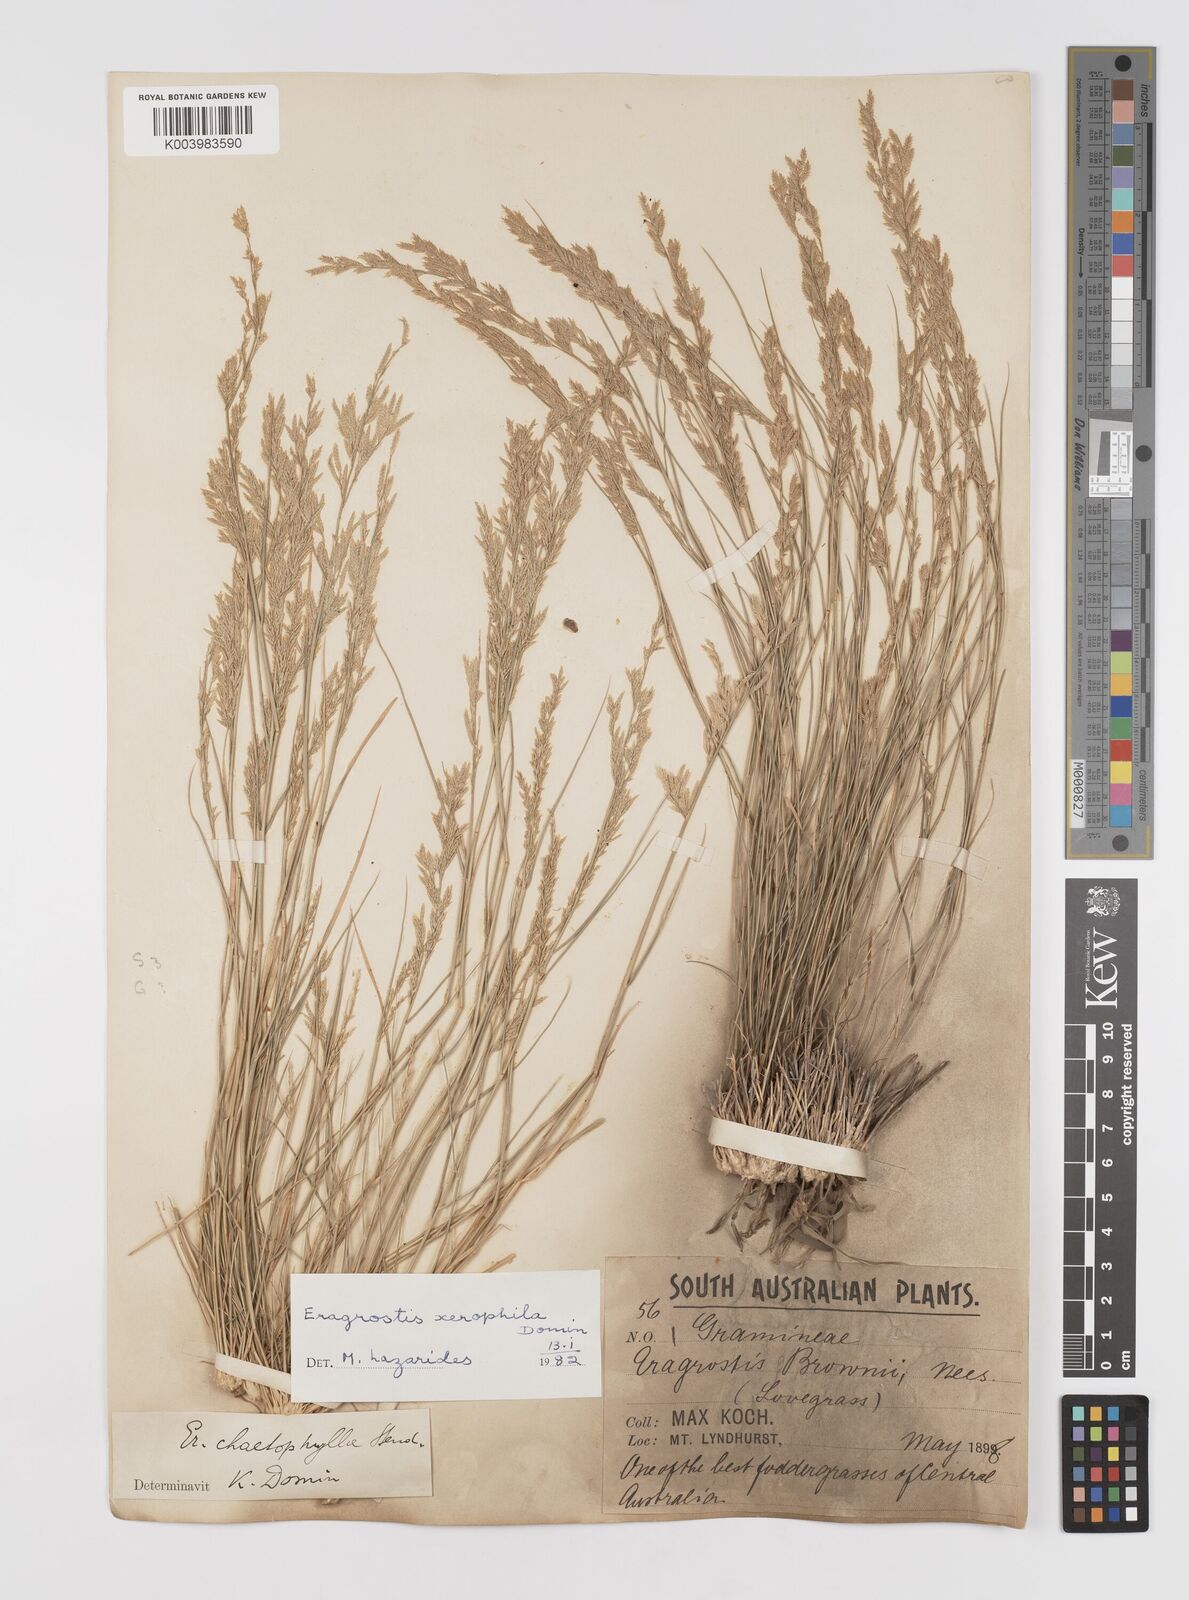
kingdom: Plantae
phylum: Tracheophyta
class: Liliopsida
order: Poales
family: Poaceae
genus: Eragrostis
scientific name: Eragrostis xerophila
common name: Wire wandarrie grass
